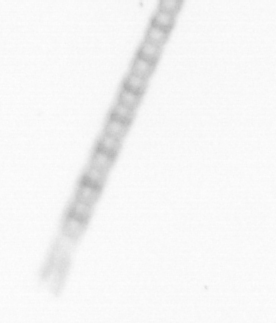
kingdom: Chromista
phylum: Ochrophyta
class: Bacillariophyceae
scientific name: Bacillariophyceae
